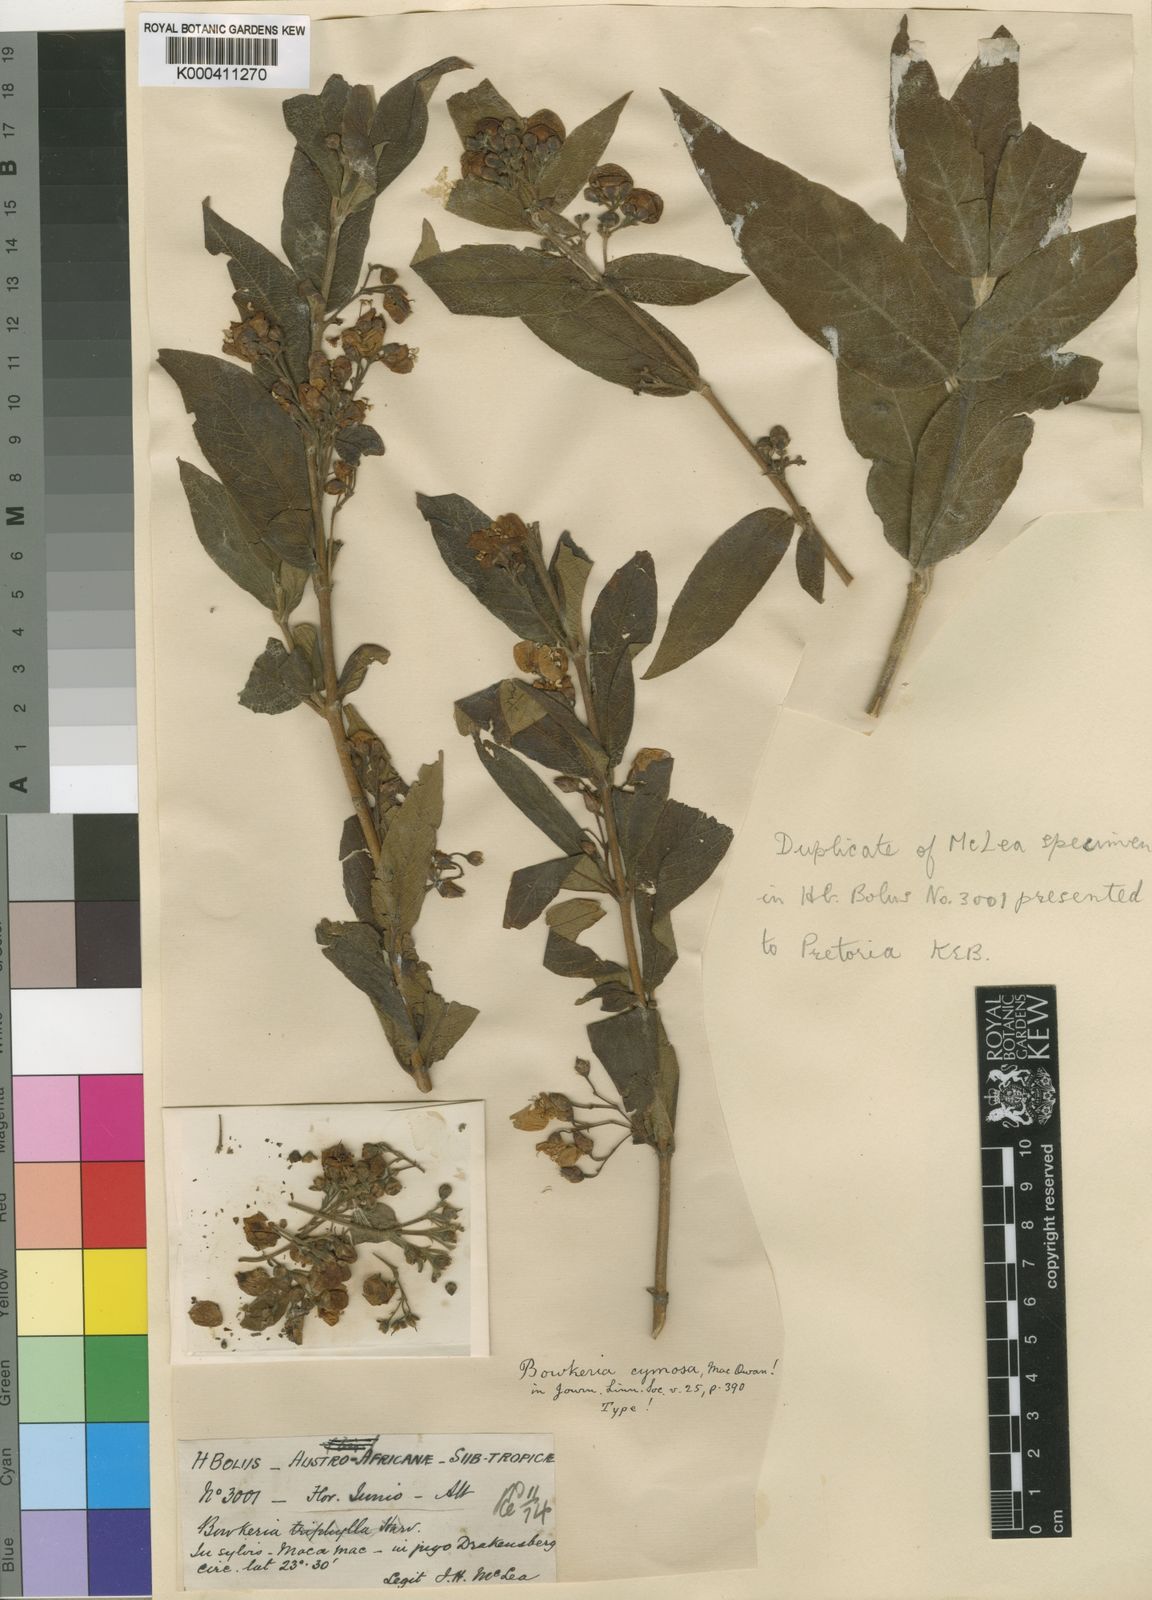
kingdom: Plantae
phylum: Tracheophyta
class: Magnoliopsida
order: Lamiales
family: Stilbaceae
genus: Bowkeria
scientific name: Bowkeria cymosa
